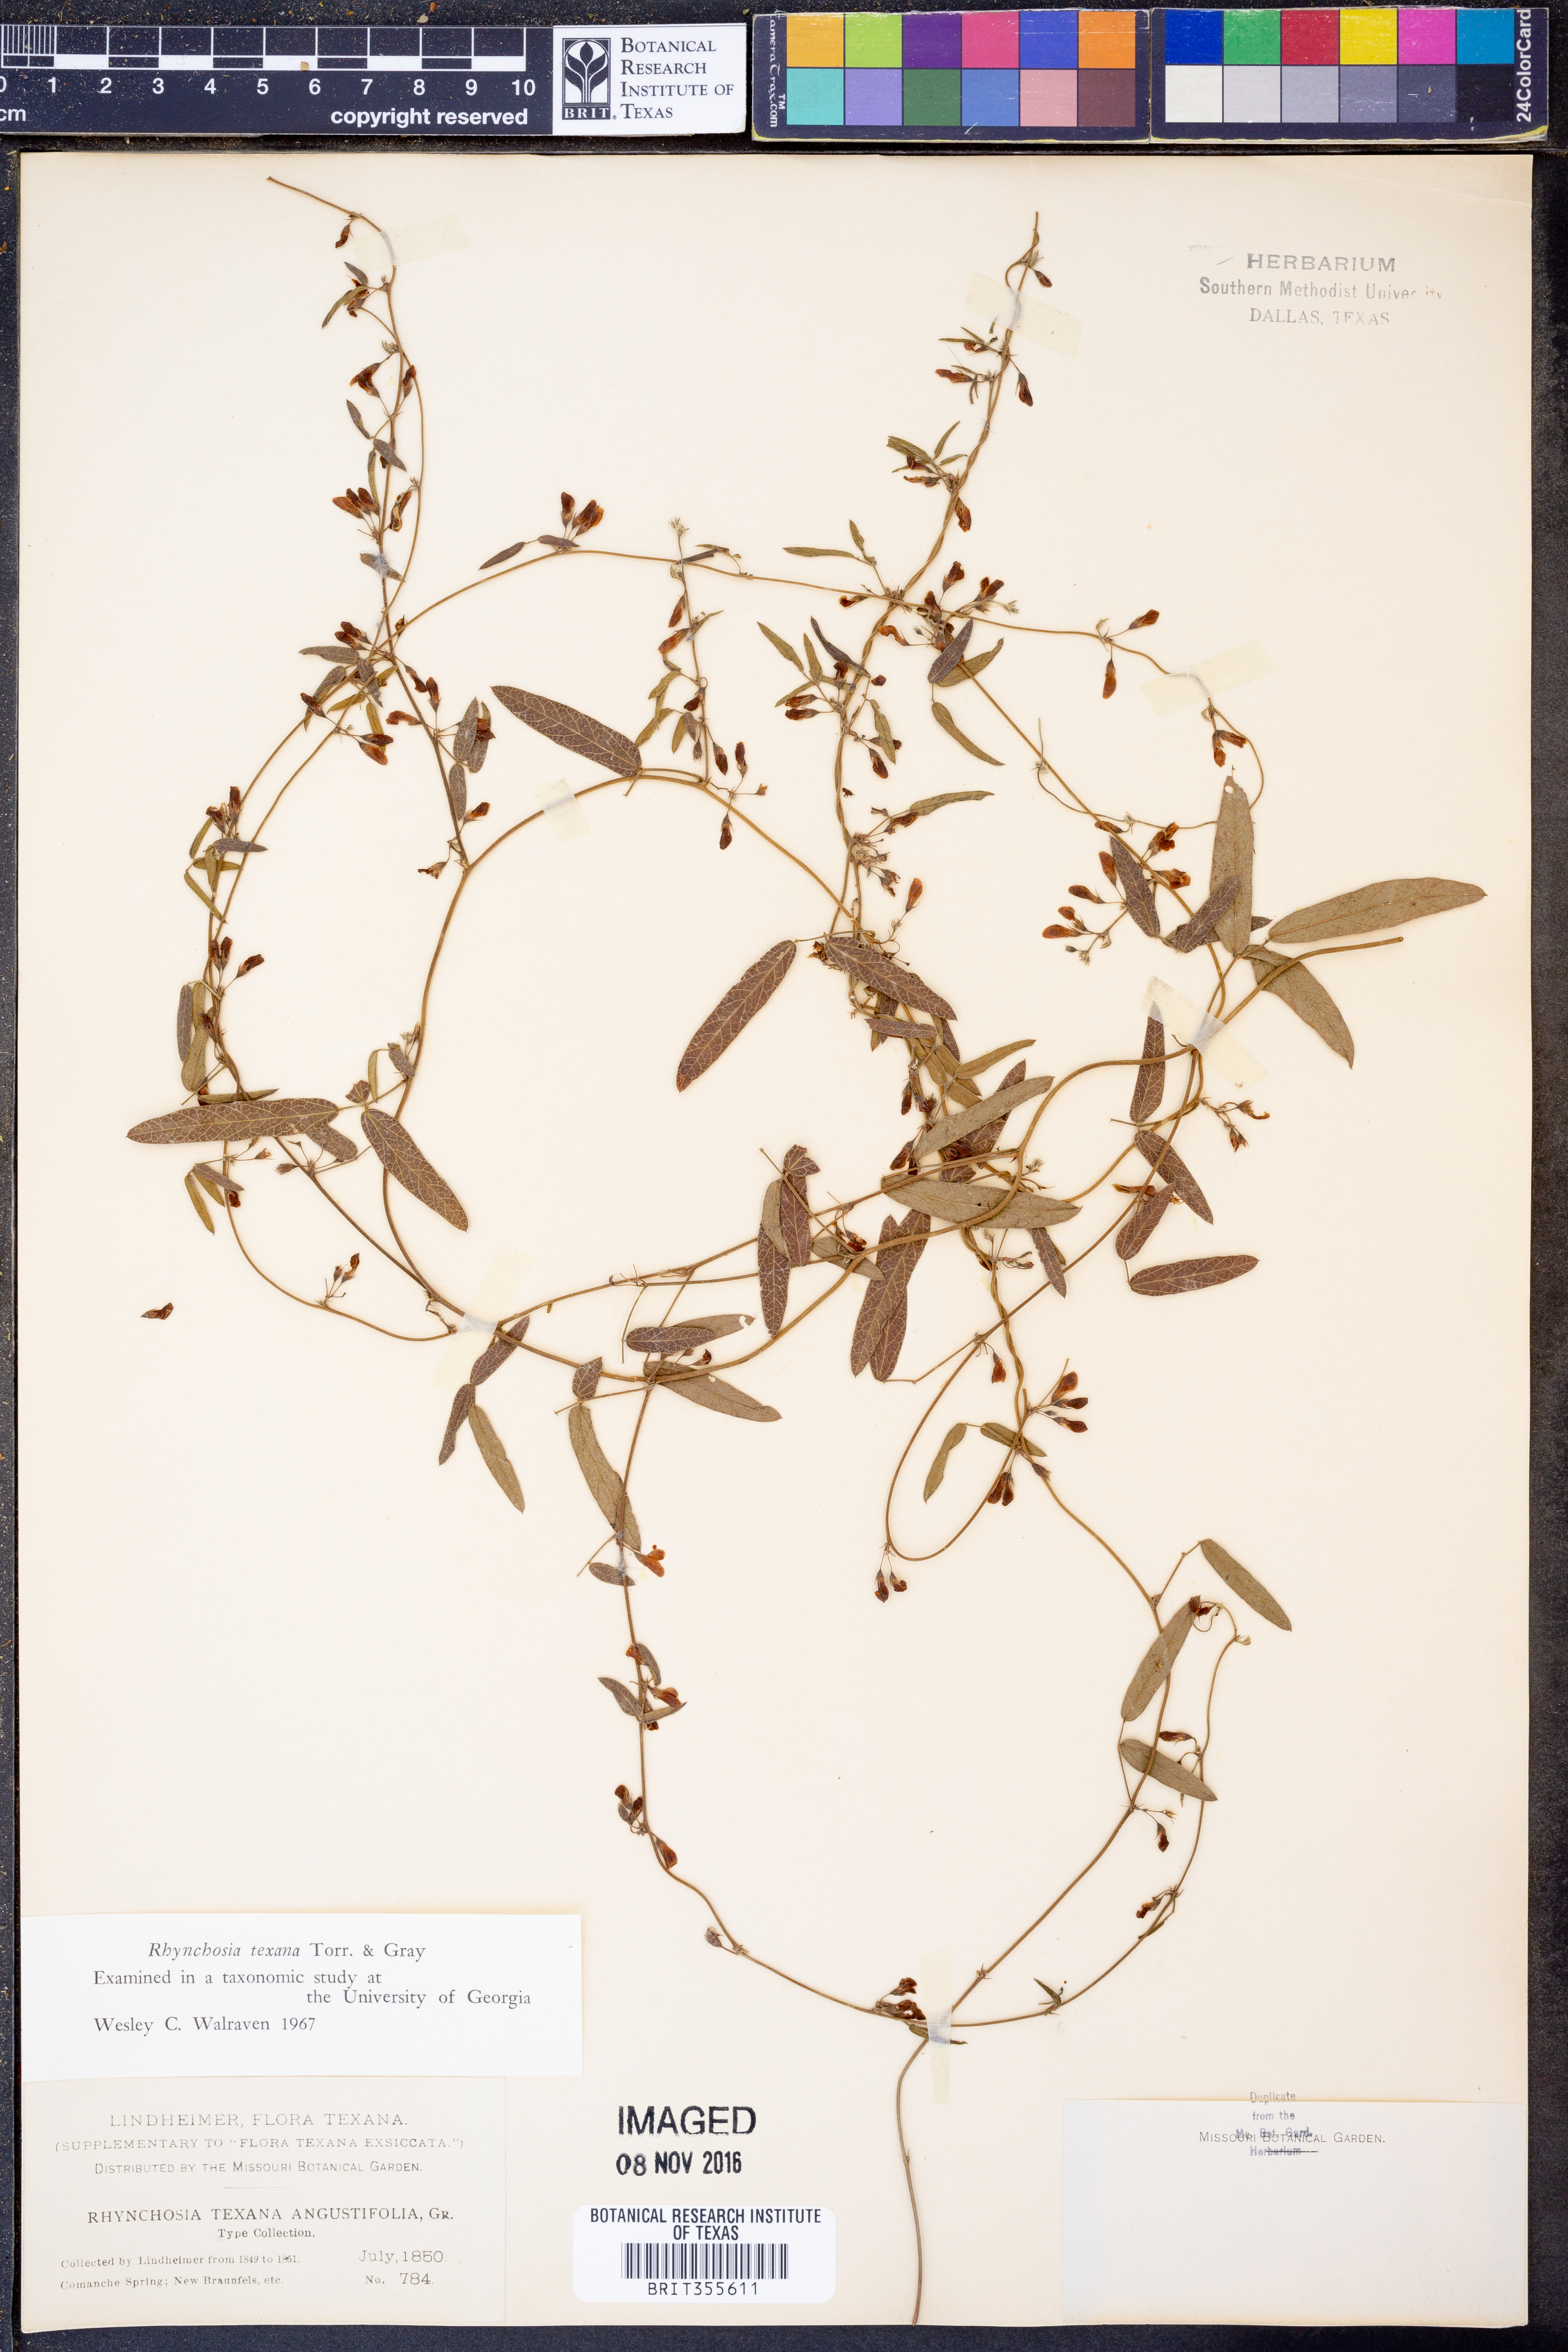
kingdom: Plantae
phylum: Tracheophyta
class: Magnoliopsida
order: Fabales
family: Fabaceae
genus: Rhynchosia
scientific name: Rhynchosia senna
